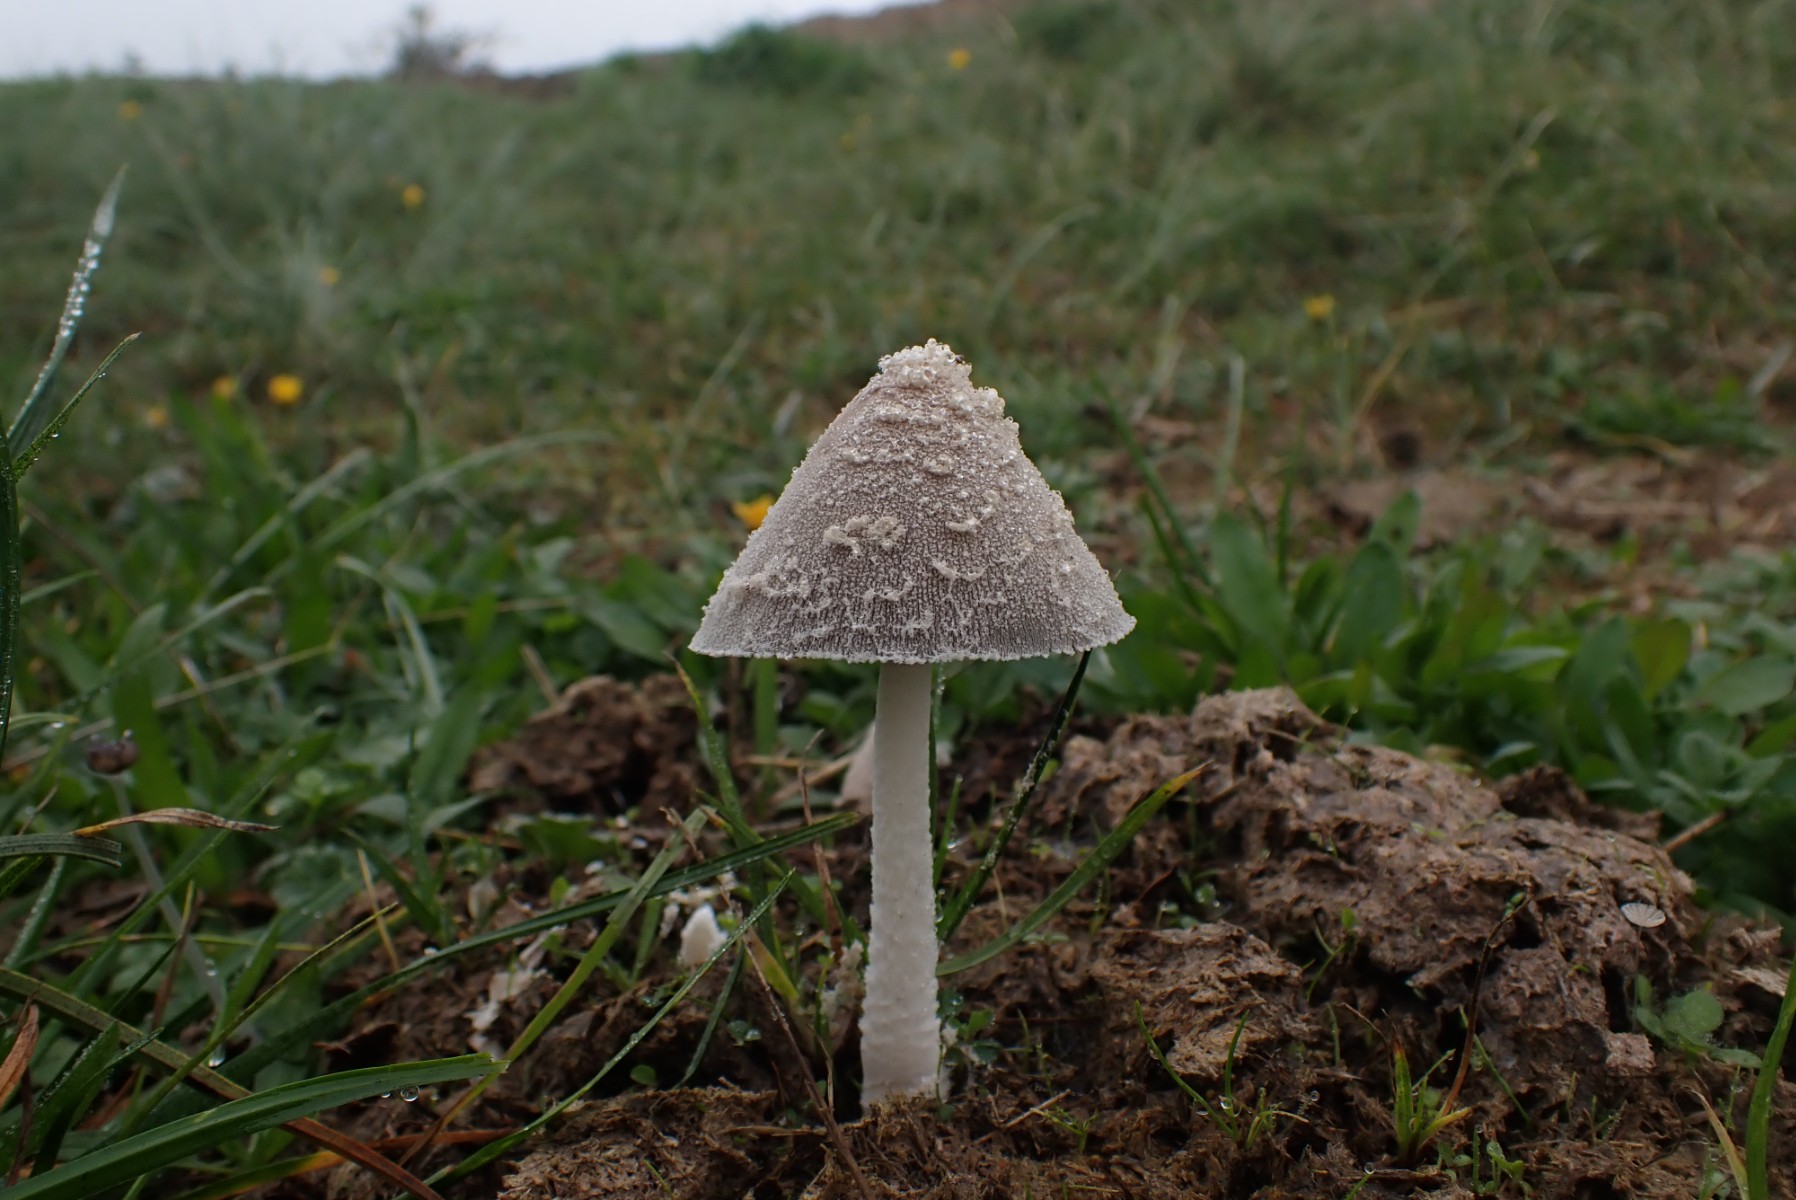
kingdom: Fungi
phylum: Basidiomycota
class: Agaricomycetes
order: Agaricales
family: Psathyrellaceae
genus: Coprinopsis
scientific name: Coprinopsis
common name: blækhat
